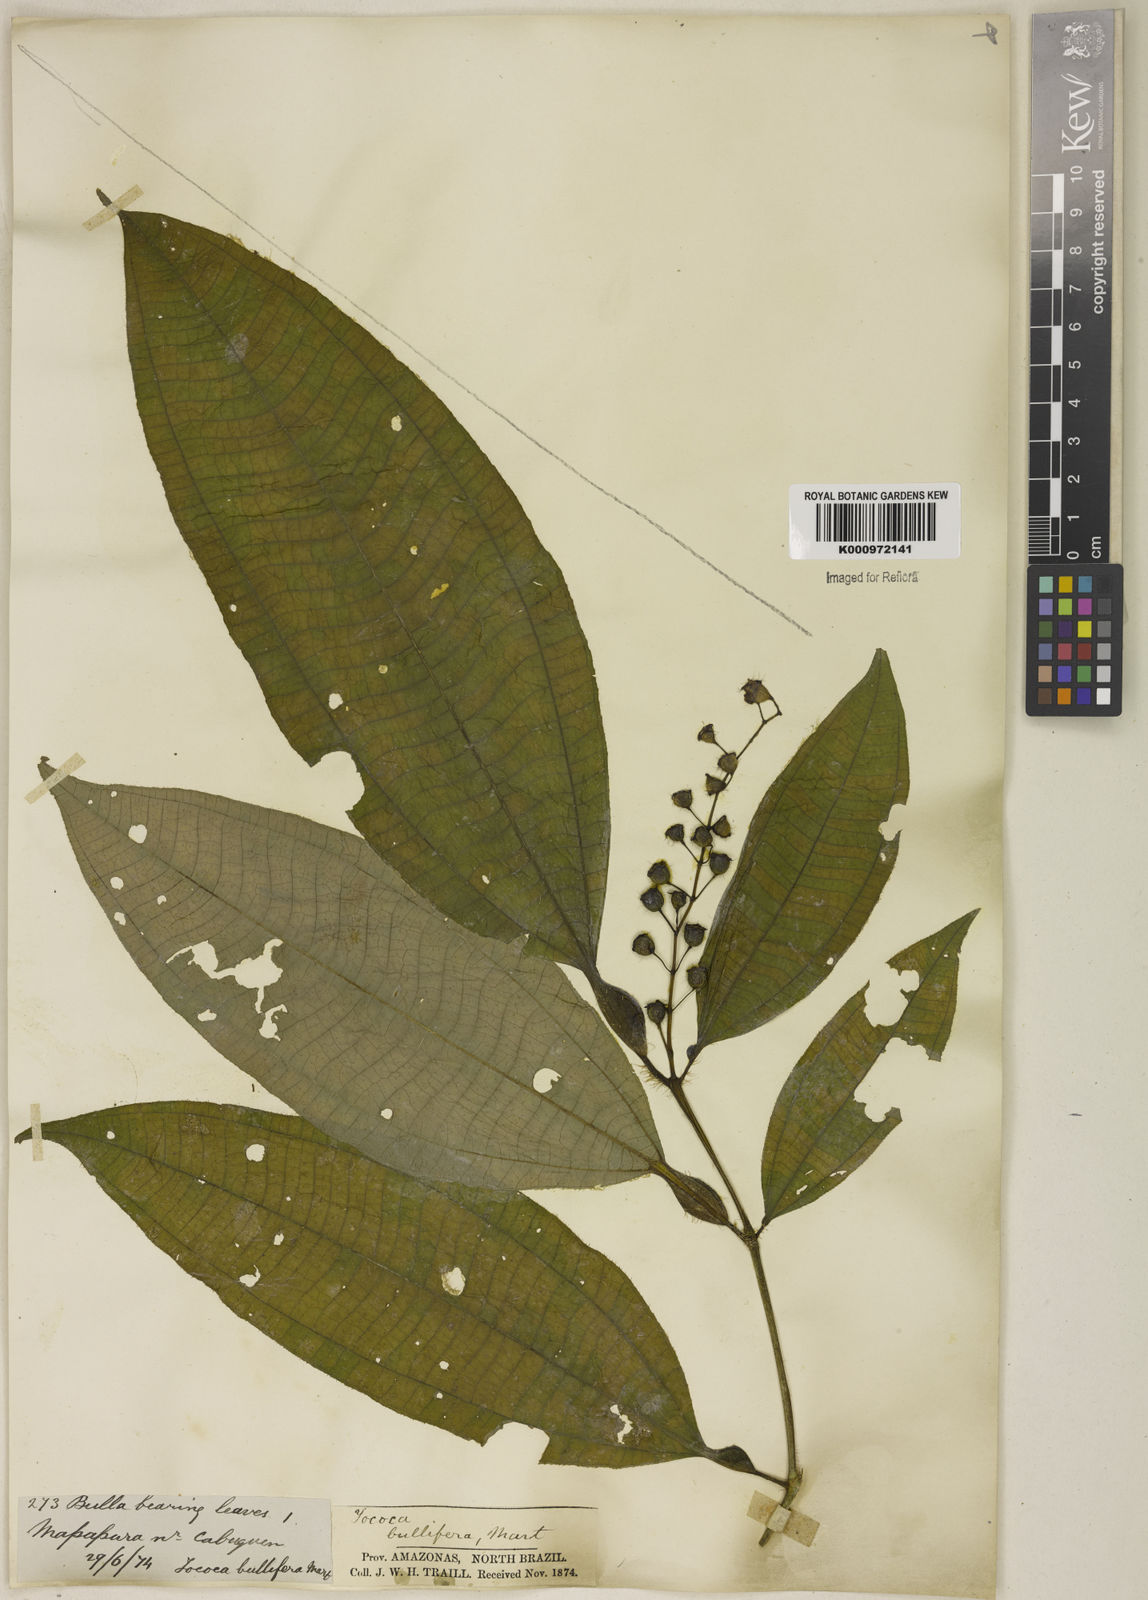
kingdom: Plantae
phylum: Tracheophyta
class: Magnoliopsida
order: Myrtales
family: Melastomataceae
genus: Miconia
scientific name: Miconia bullifera
